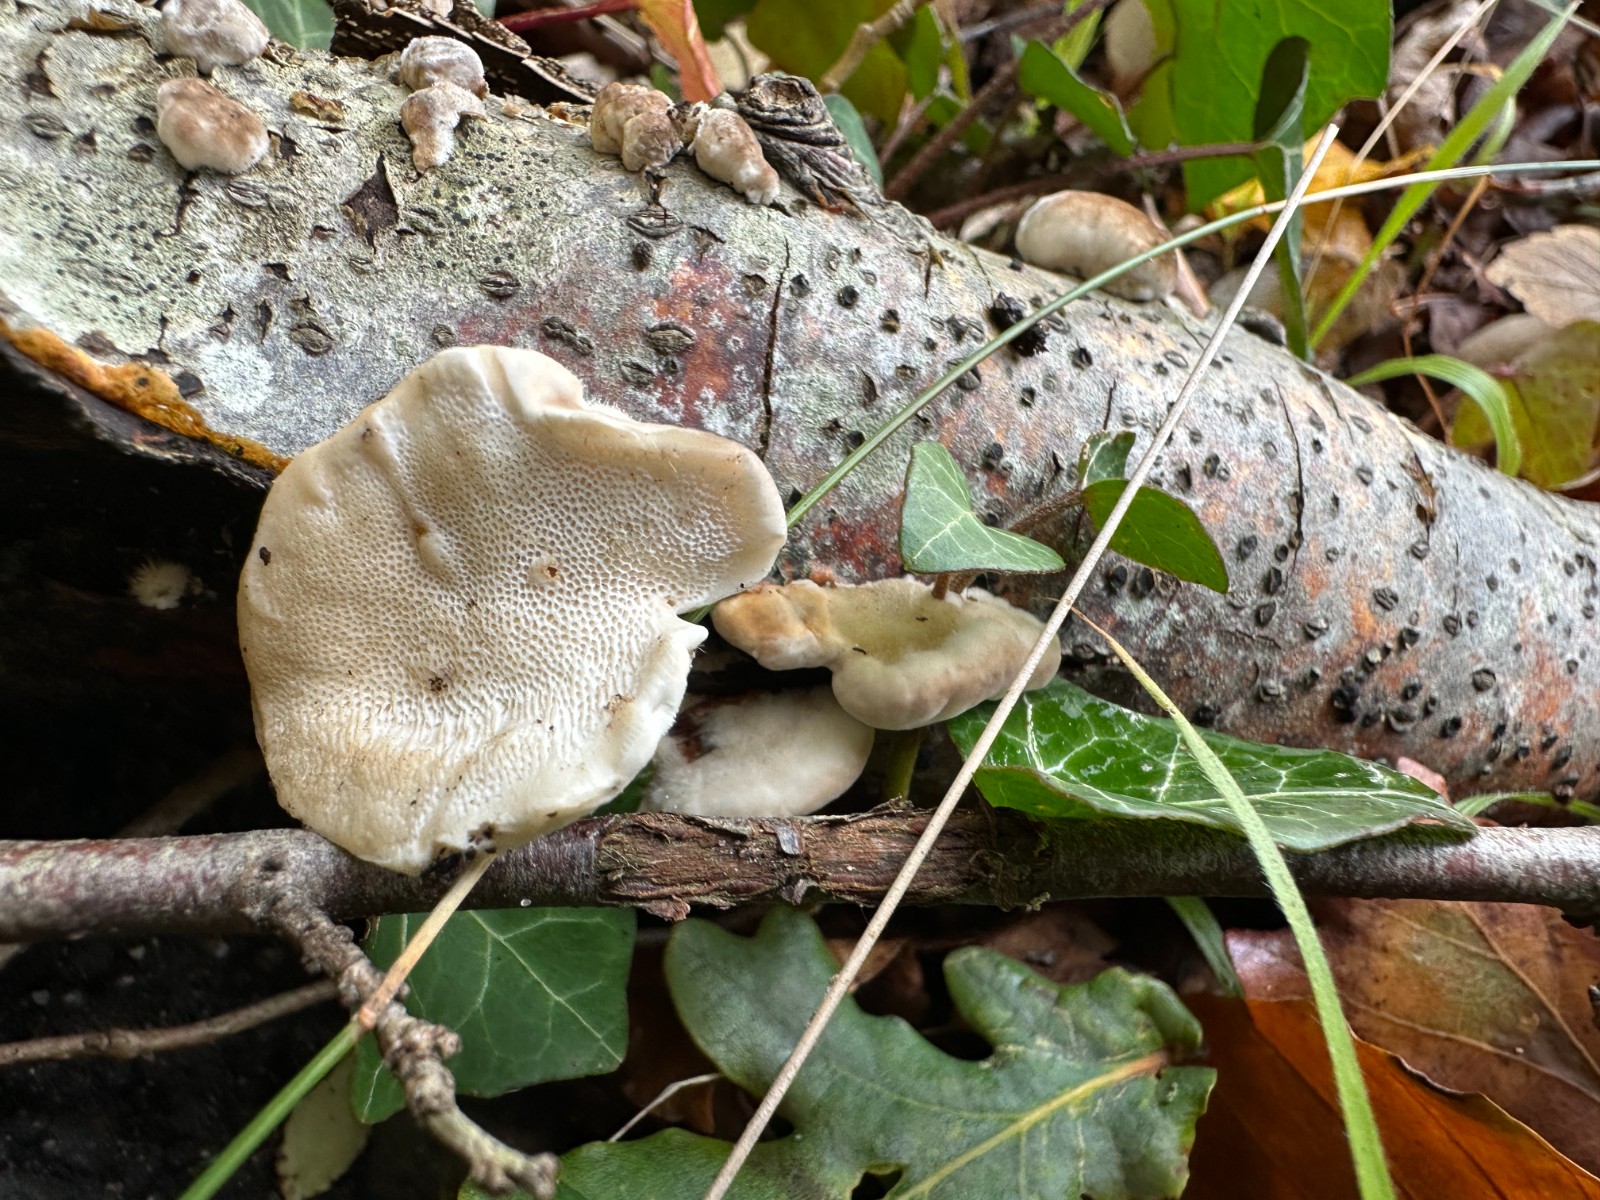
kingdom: Fungi
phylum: Basidiomycota
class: Agaricomycetes
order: Polyporales
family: Polyporaceae
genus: Trametes
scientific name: Trametes hirsuta
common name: håret læderporesvamp
